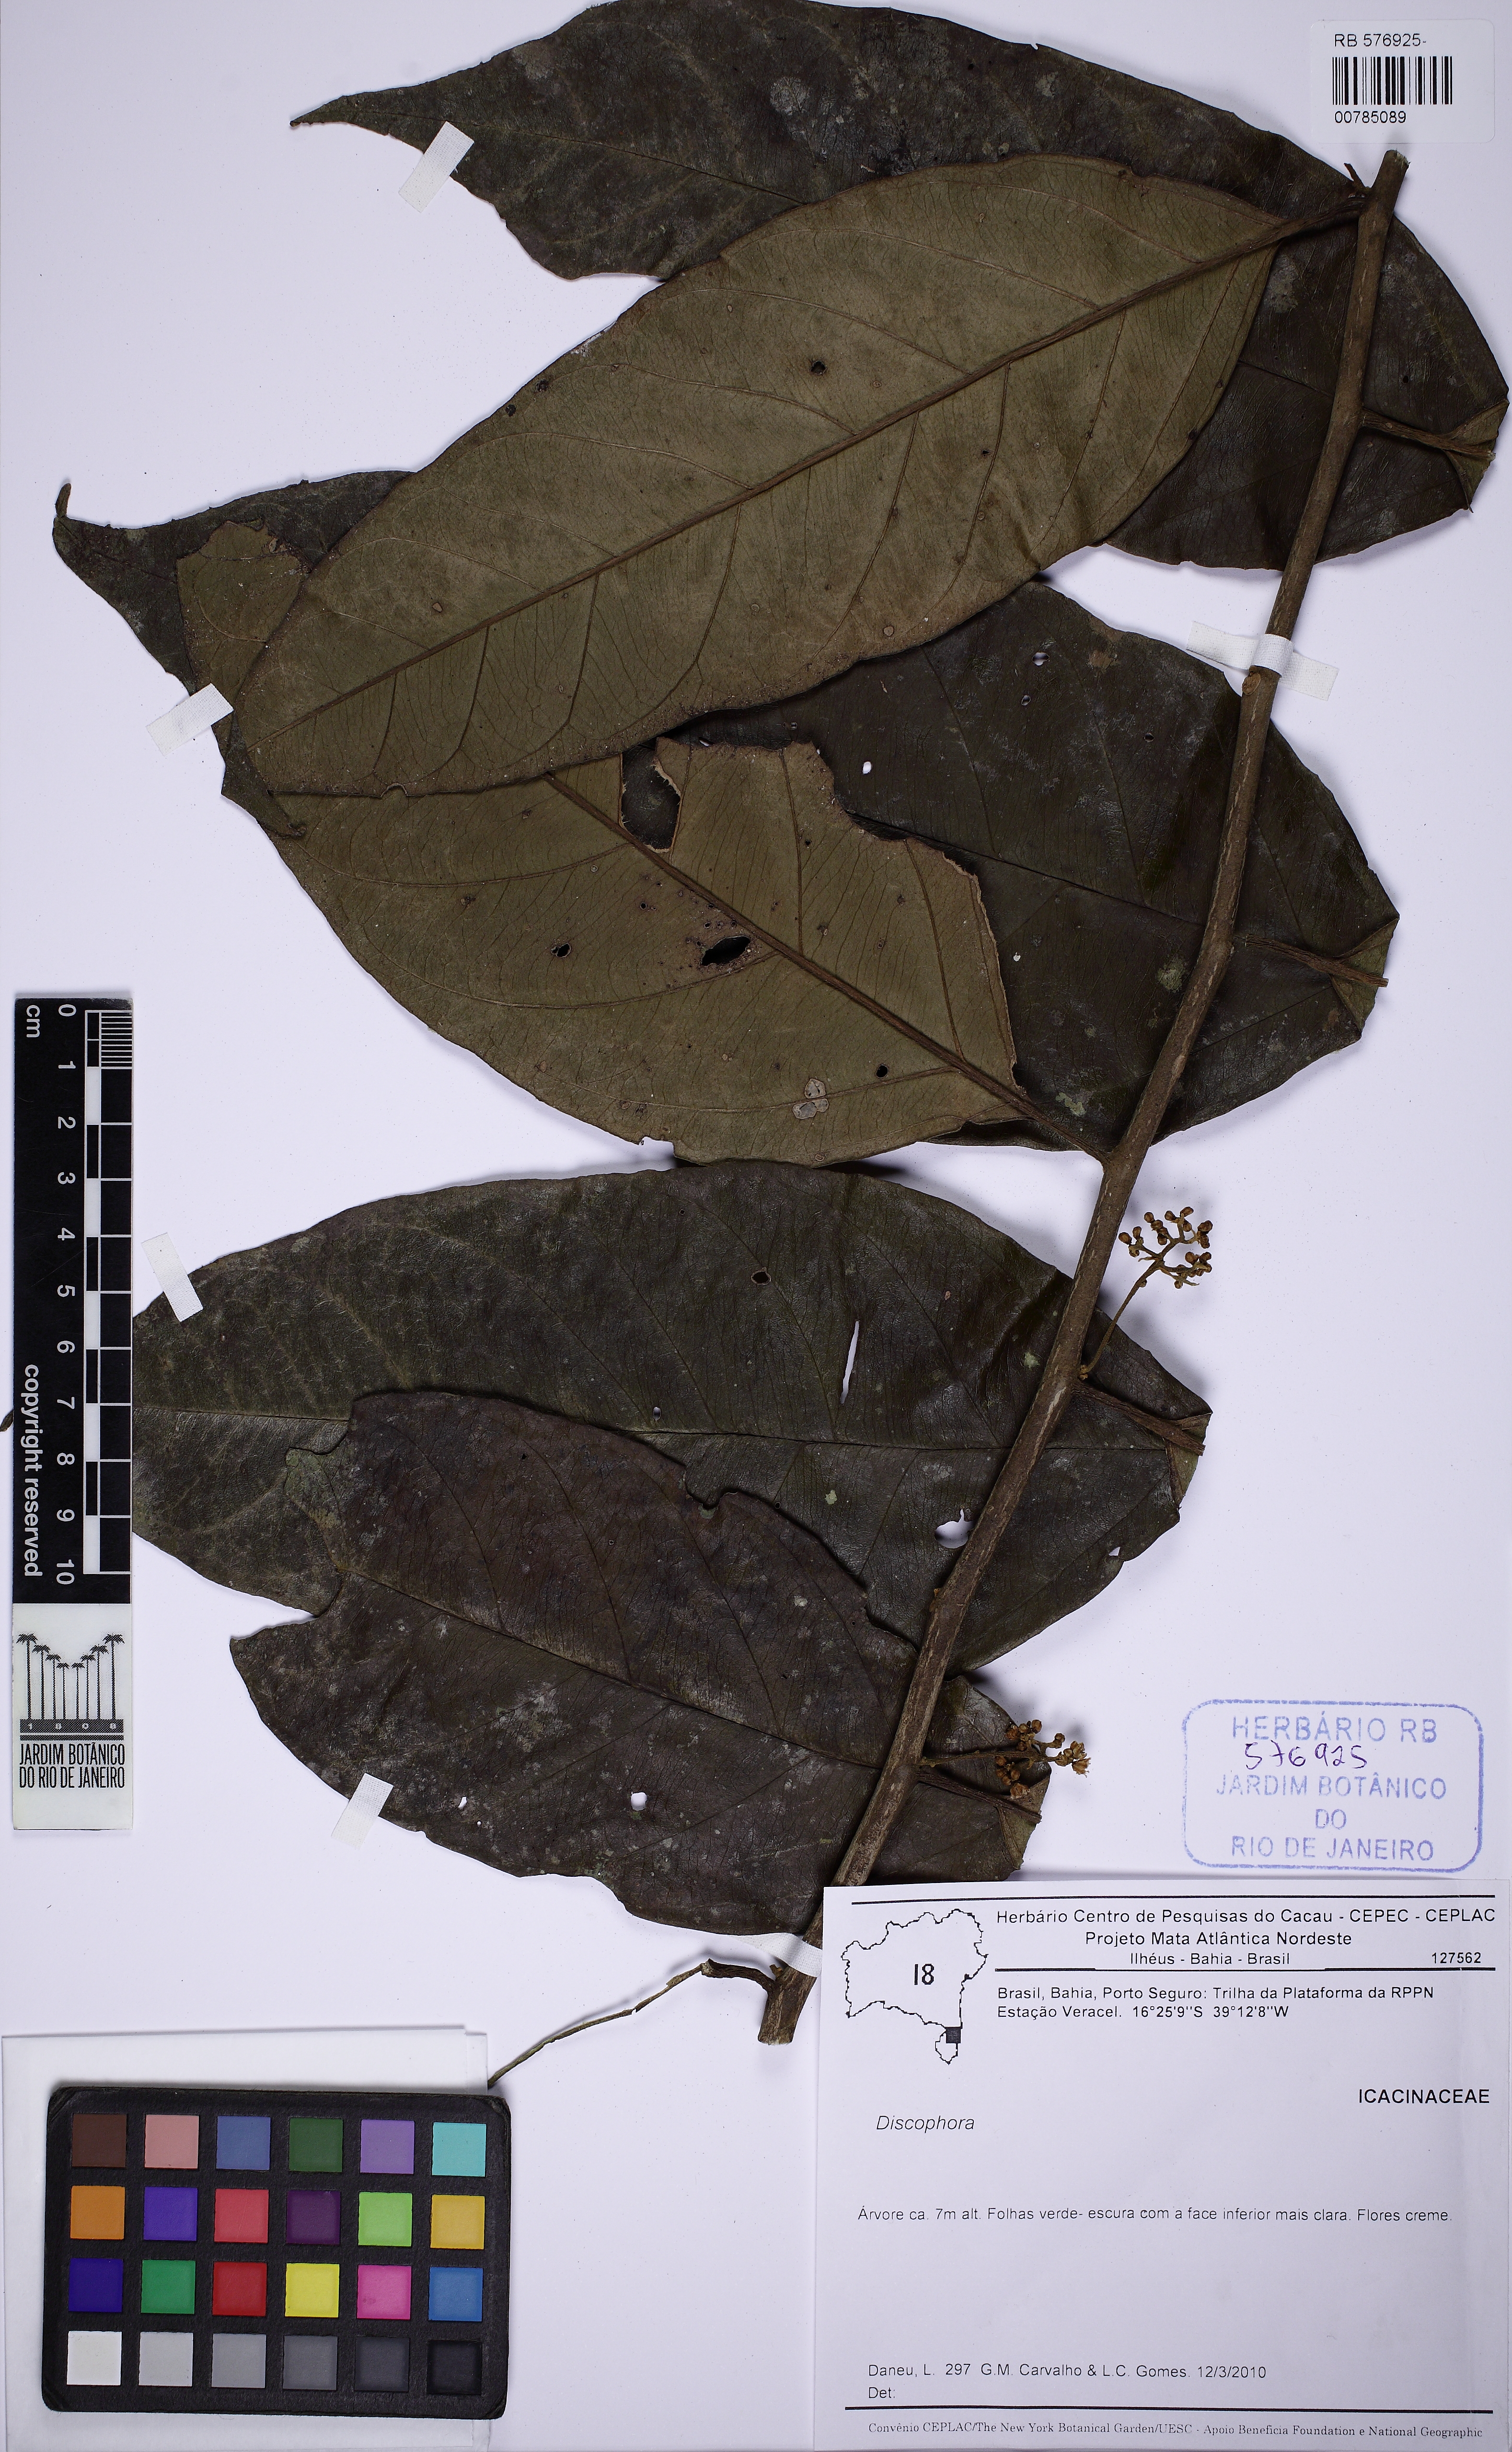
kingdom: Plantae
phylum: Tracheophyta
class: Magnoliopsida
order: Cardiopteridales
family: Stemonuraceae
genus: Discophora
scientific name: Discophora guianensis
